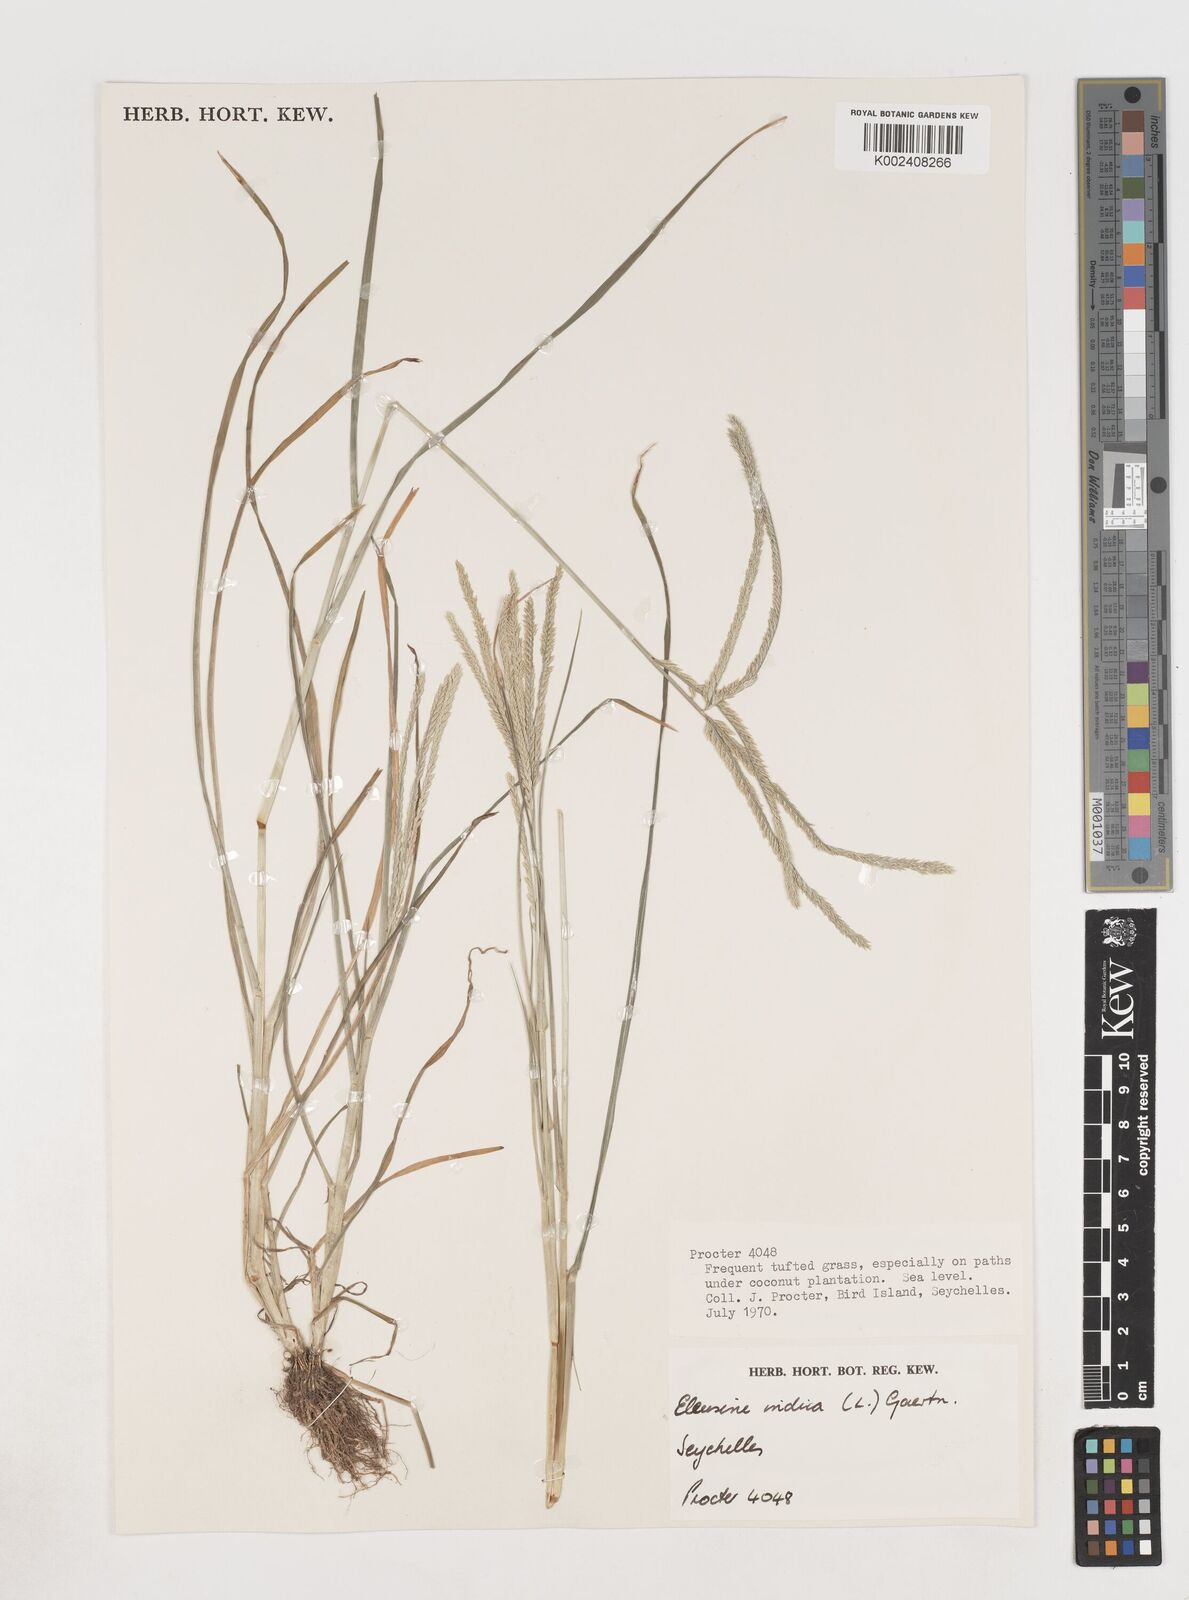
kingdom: Plantae
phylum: Tracheophyta
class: Liliopsida
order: Poales
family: Poaceae
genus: Eleusine
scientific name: Eleusine
